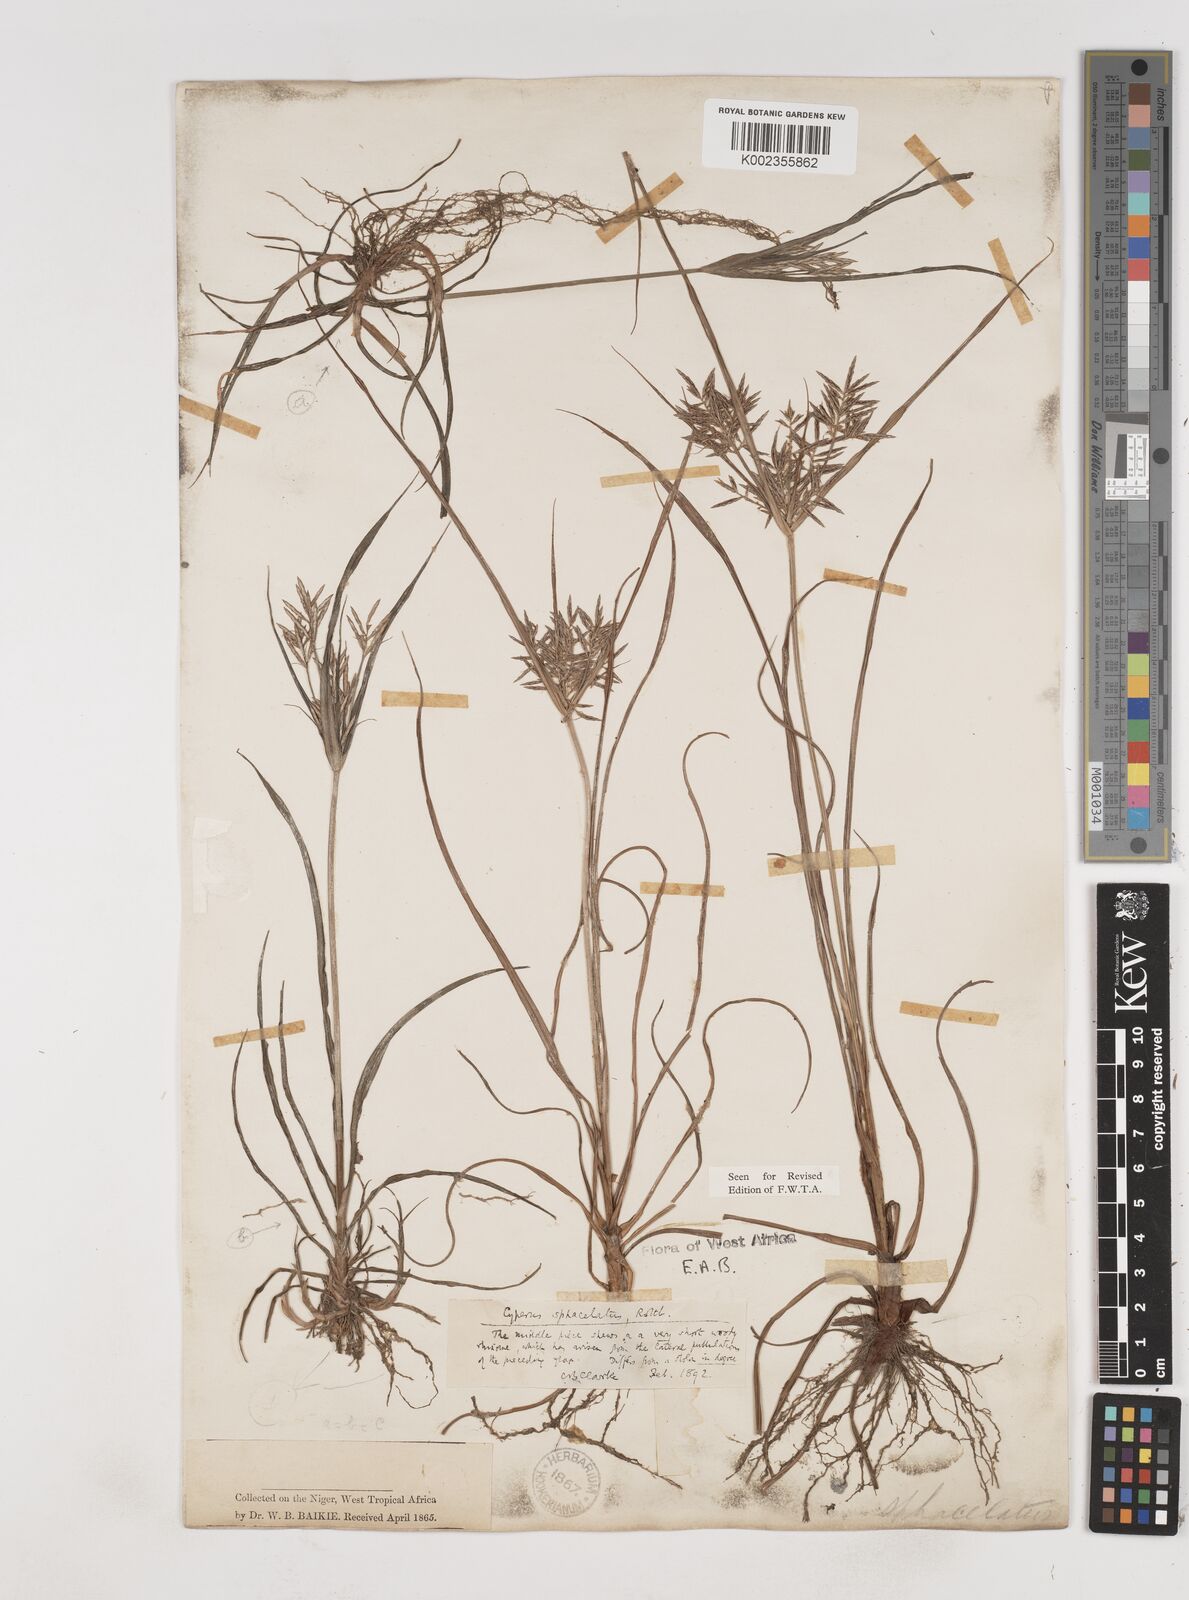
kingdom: Plantae
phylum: Tracheophyta
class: Liliopsida
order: Poales
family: Cyperaceae
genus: Cyperus
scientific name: Cyperus sphacelatus
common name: Roadside flatsedge
